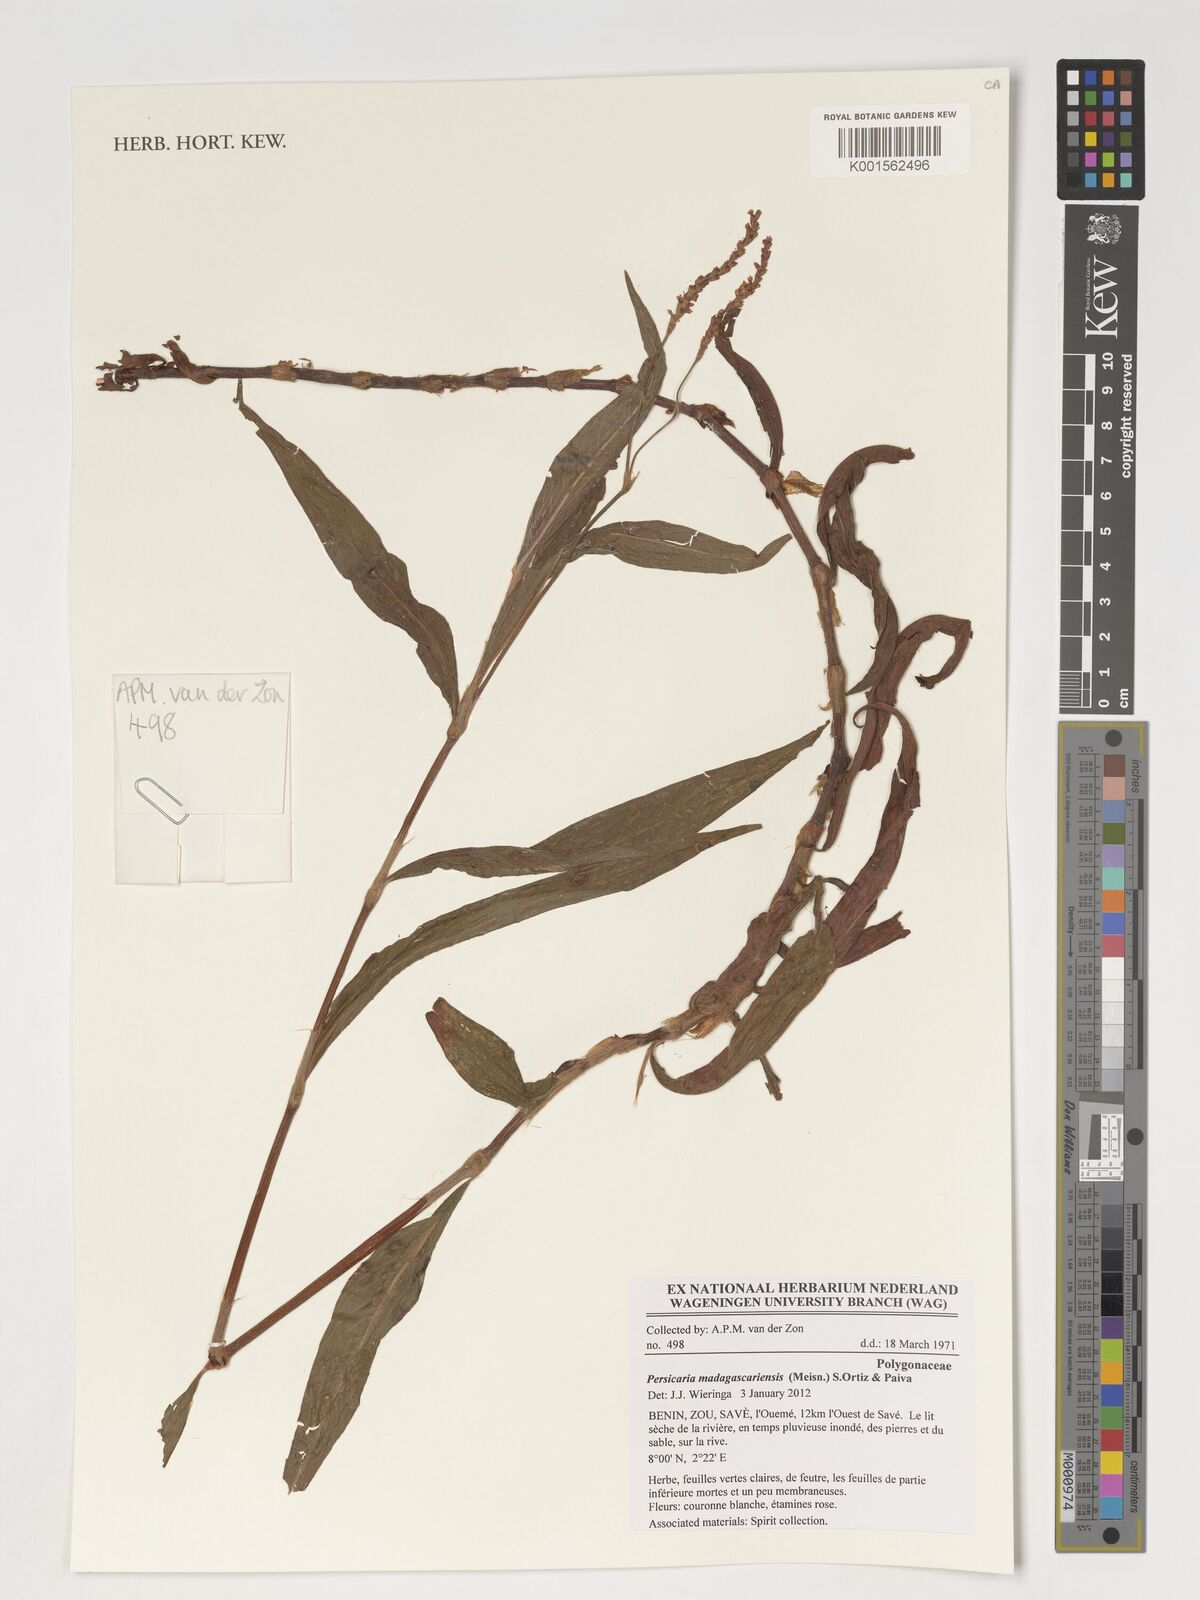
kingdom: Plantae
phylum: Tracheophyta
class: Magnoliopsida
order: Caryophyllales
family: Polygonaceae
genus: Persicaria
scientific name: Persicaria madagascariensis
